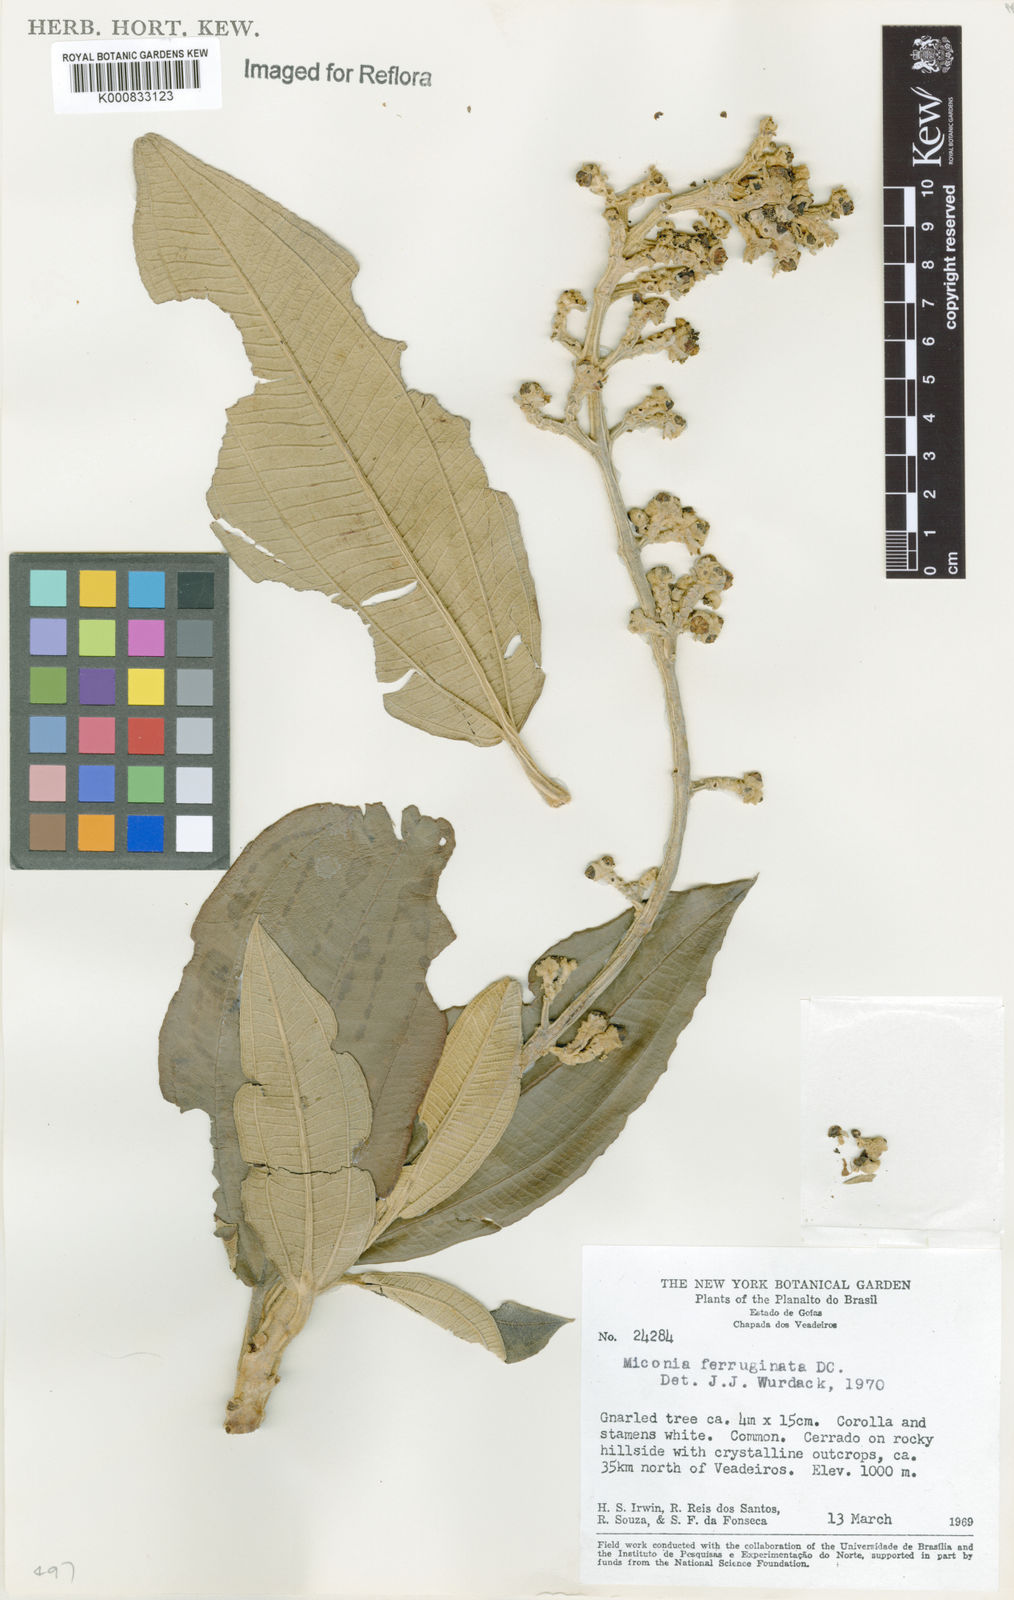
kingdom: Plantae
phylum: Tracheophyta
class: Magnoliopsida
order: Myrtales
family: Melastomataceae
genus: Miconia
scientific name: Miconia ferruginata
